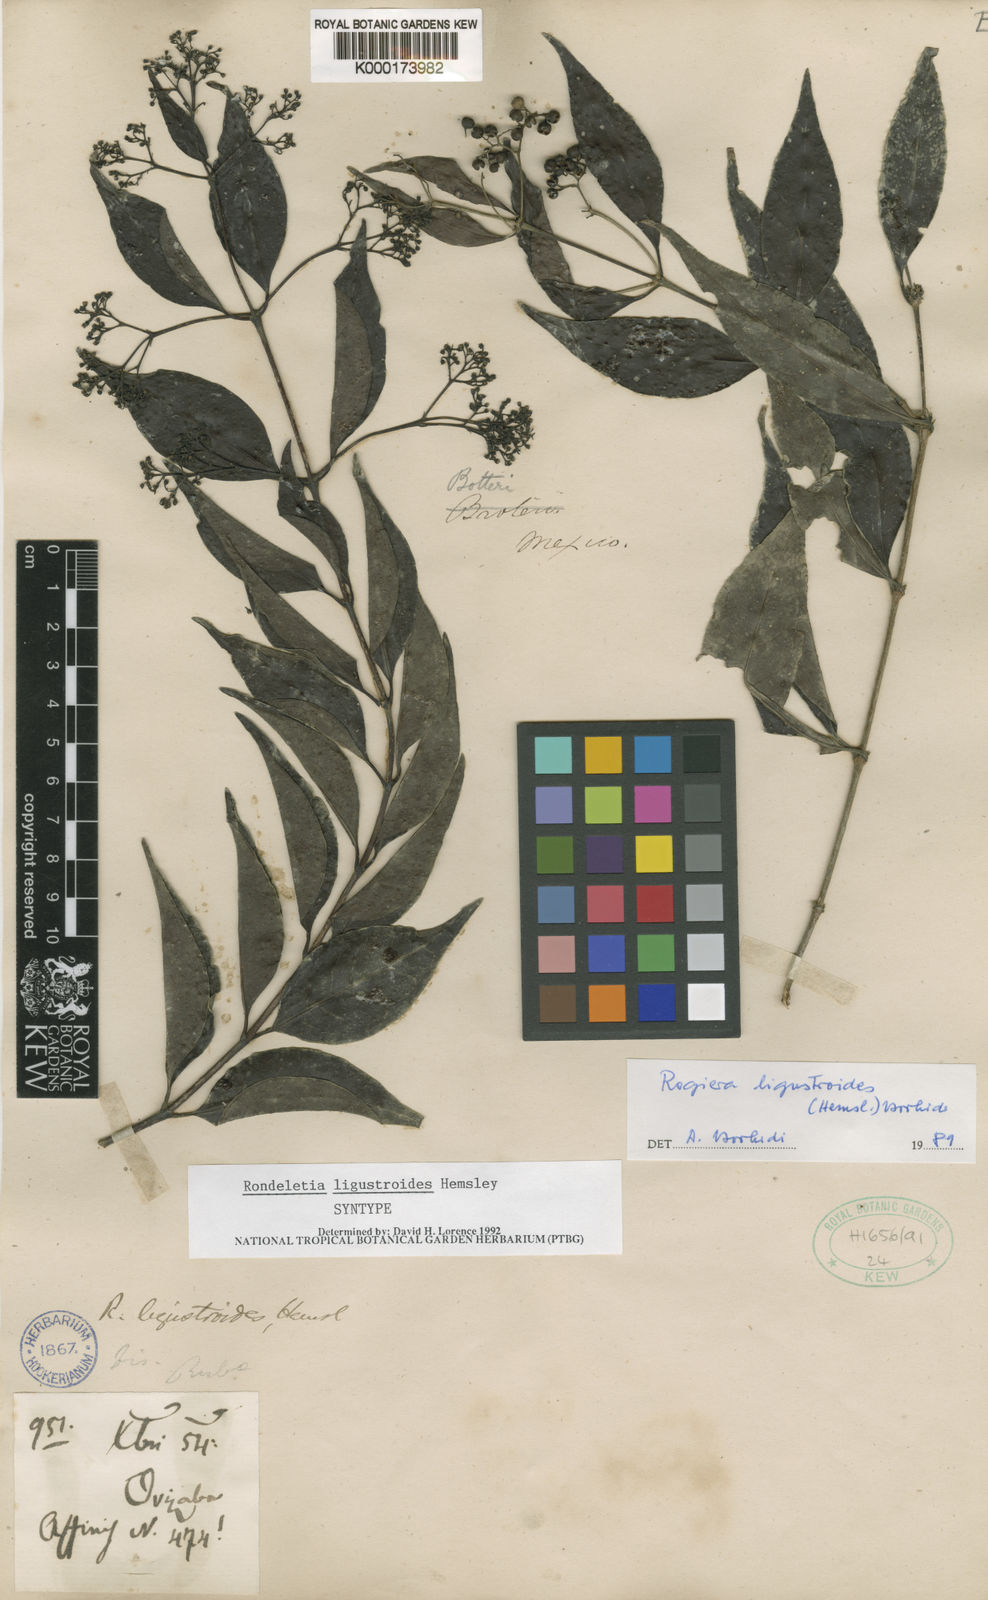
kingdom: Plantae
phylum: Tracheophyta
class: Magnoliopsida
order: Gentianales
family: Rubiaceae
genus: Rogiera
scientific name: Rogiera ligustroides
